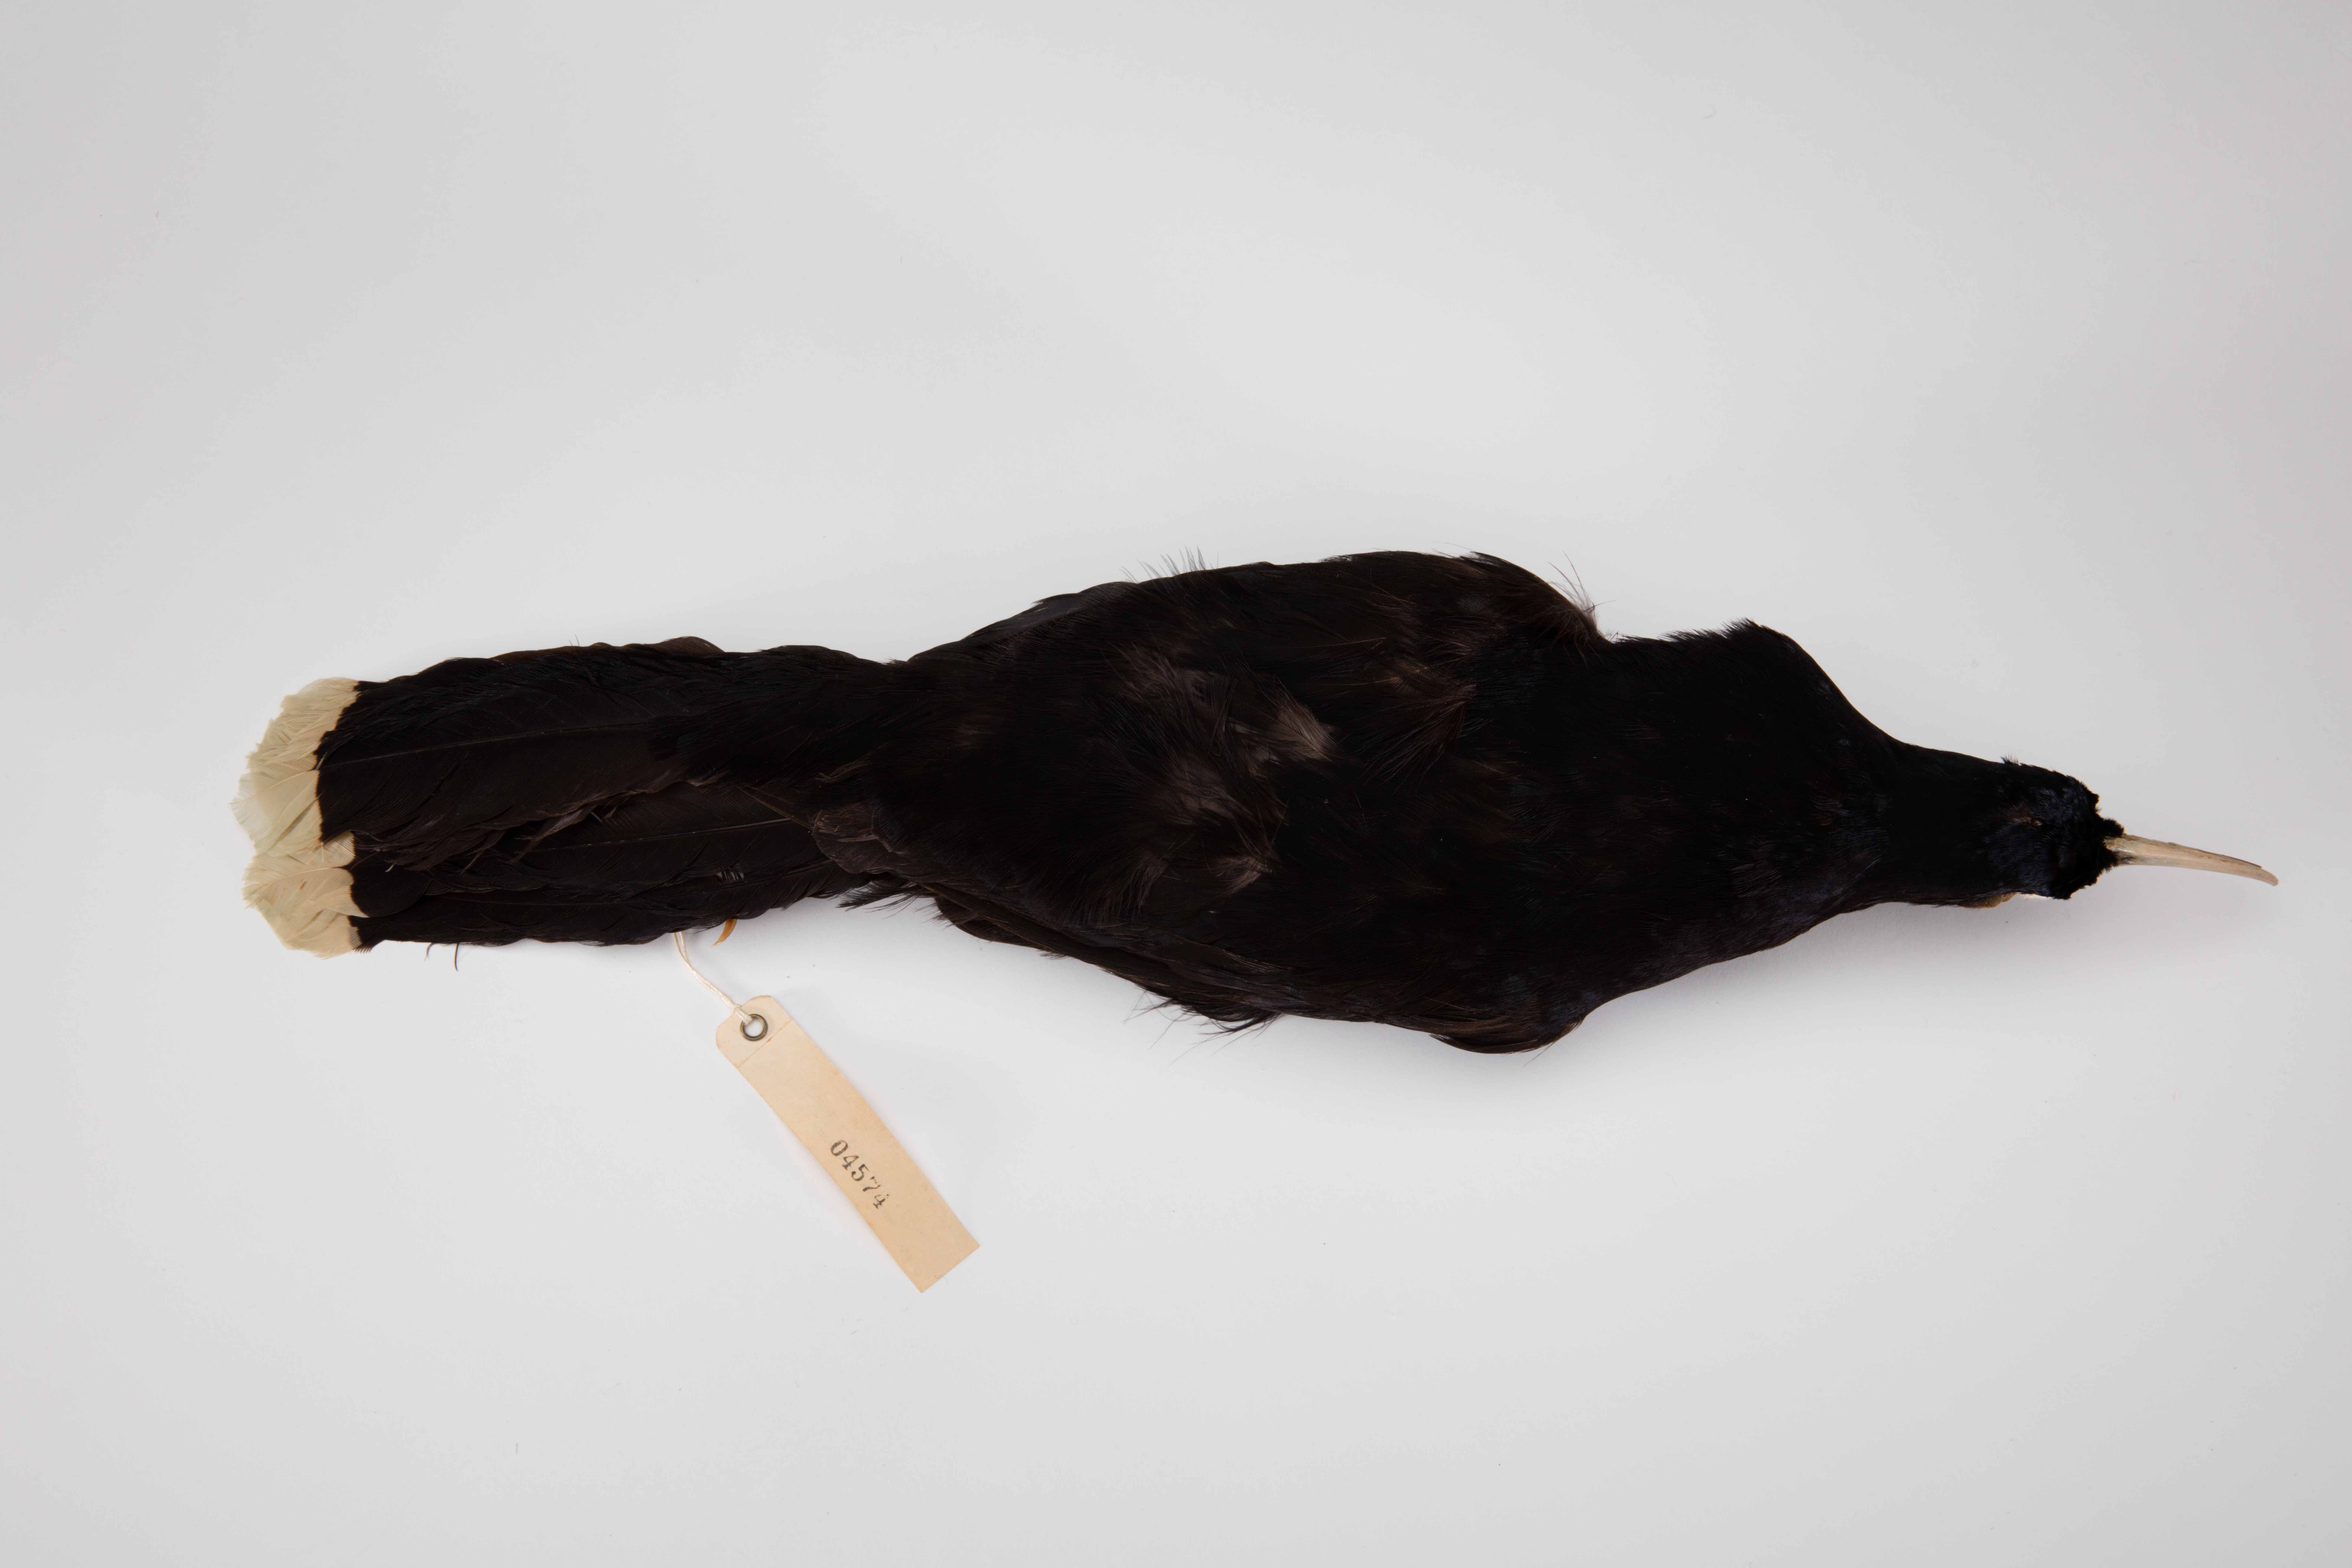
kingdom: Animalia
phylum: Chordata
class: Aves
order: Passeriformes
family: Callaeatidae
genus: Heteralocha
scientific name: Heteralocha acutirostris
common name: Huia
